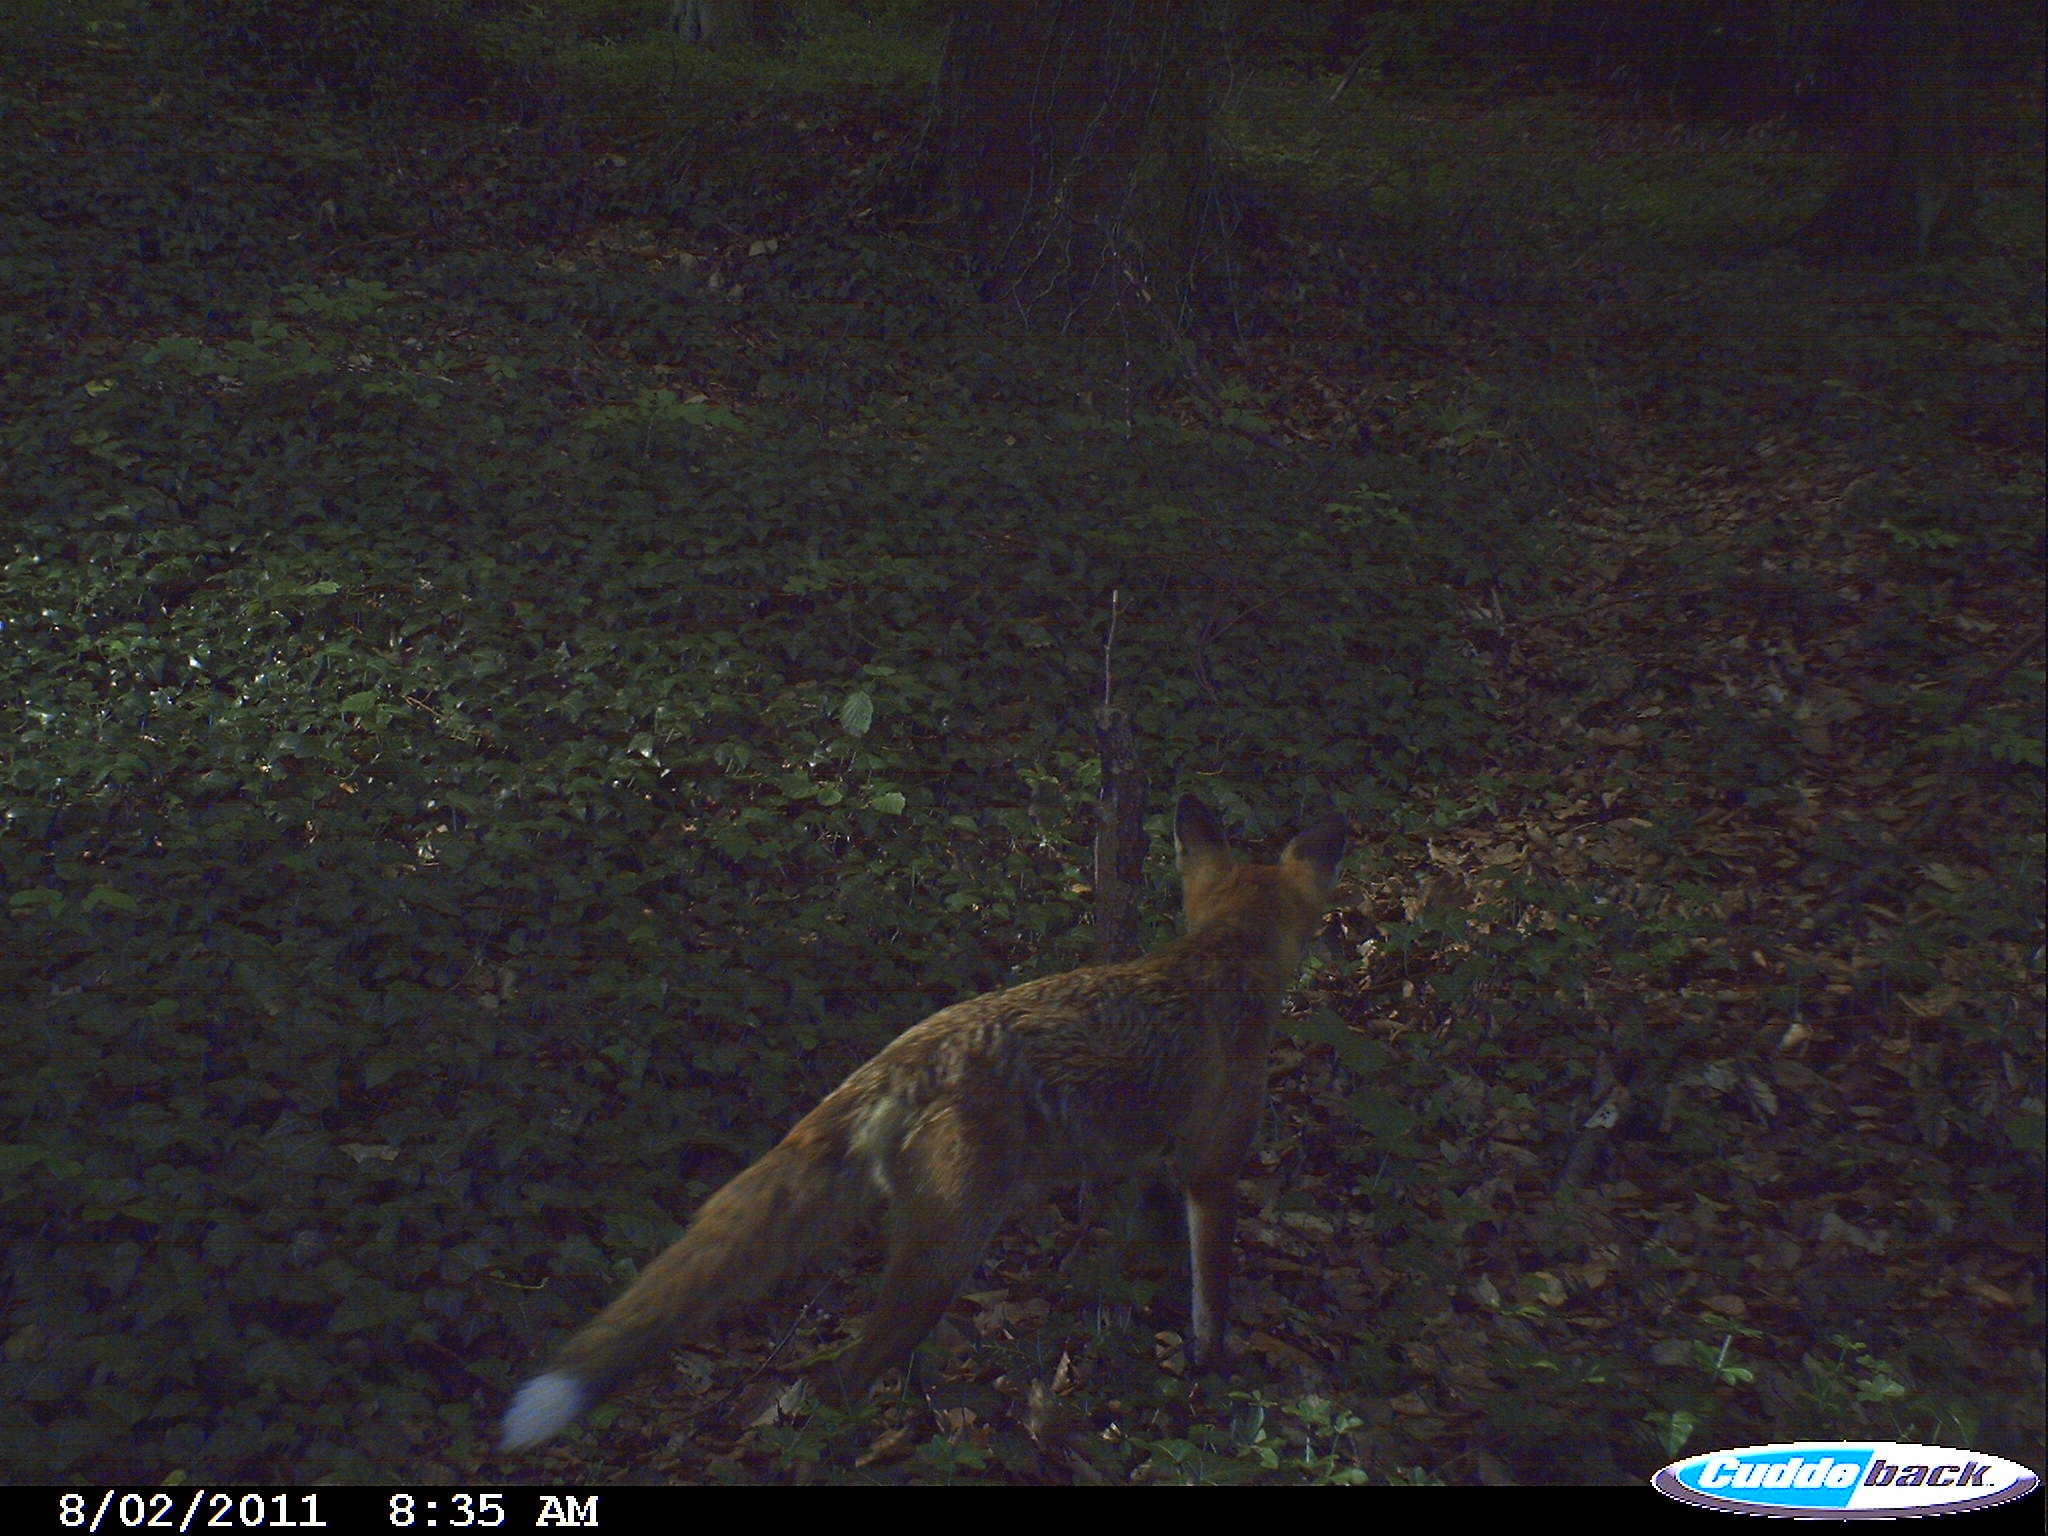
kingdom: Animalia
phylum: Chordata
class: Mammalia
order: Carnivora
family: Canidae
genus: Vulpes
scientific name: Vulpes vulpes
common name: Red fox
